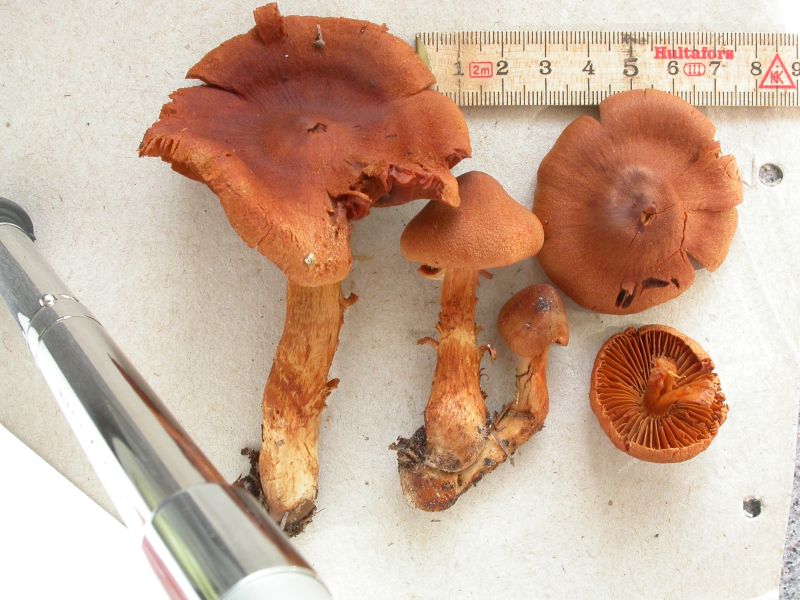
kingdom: Fungi
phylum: Basidiomycota
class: Agaricomycetes
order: Agaricales
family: Cortinariaceae
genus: Cortinarius
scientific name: Cortinarius rubellus
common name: puklet gift-slørhat
